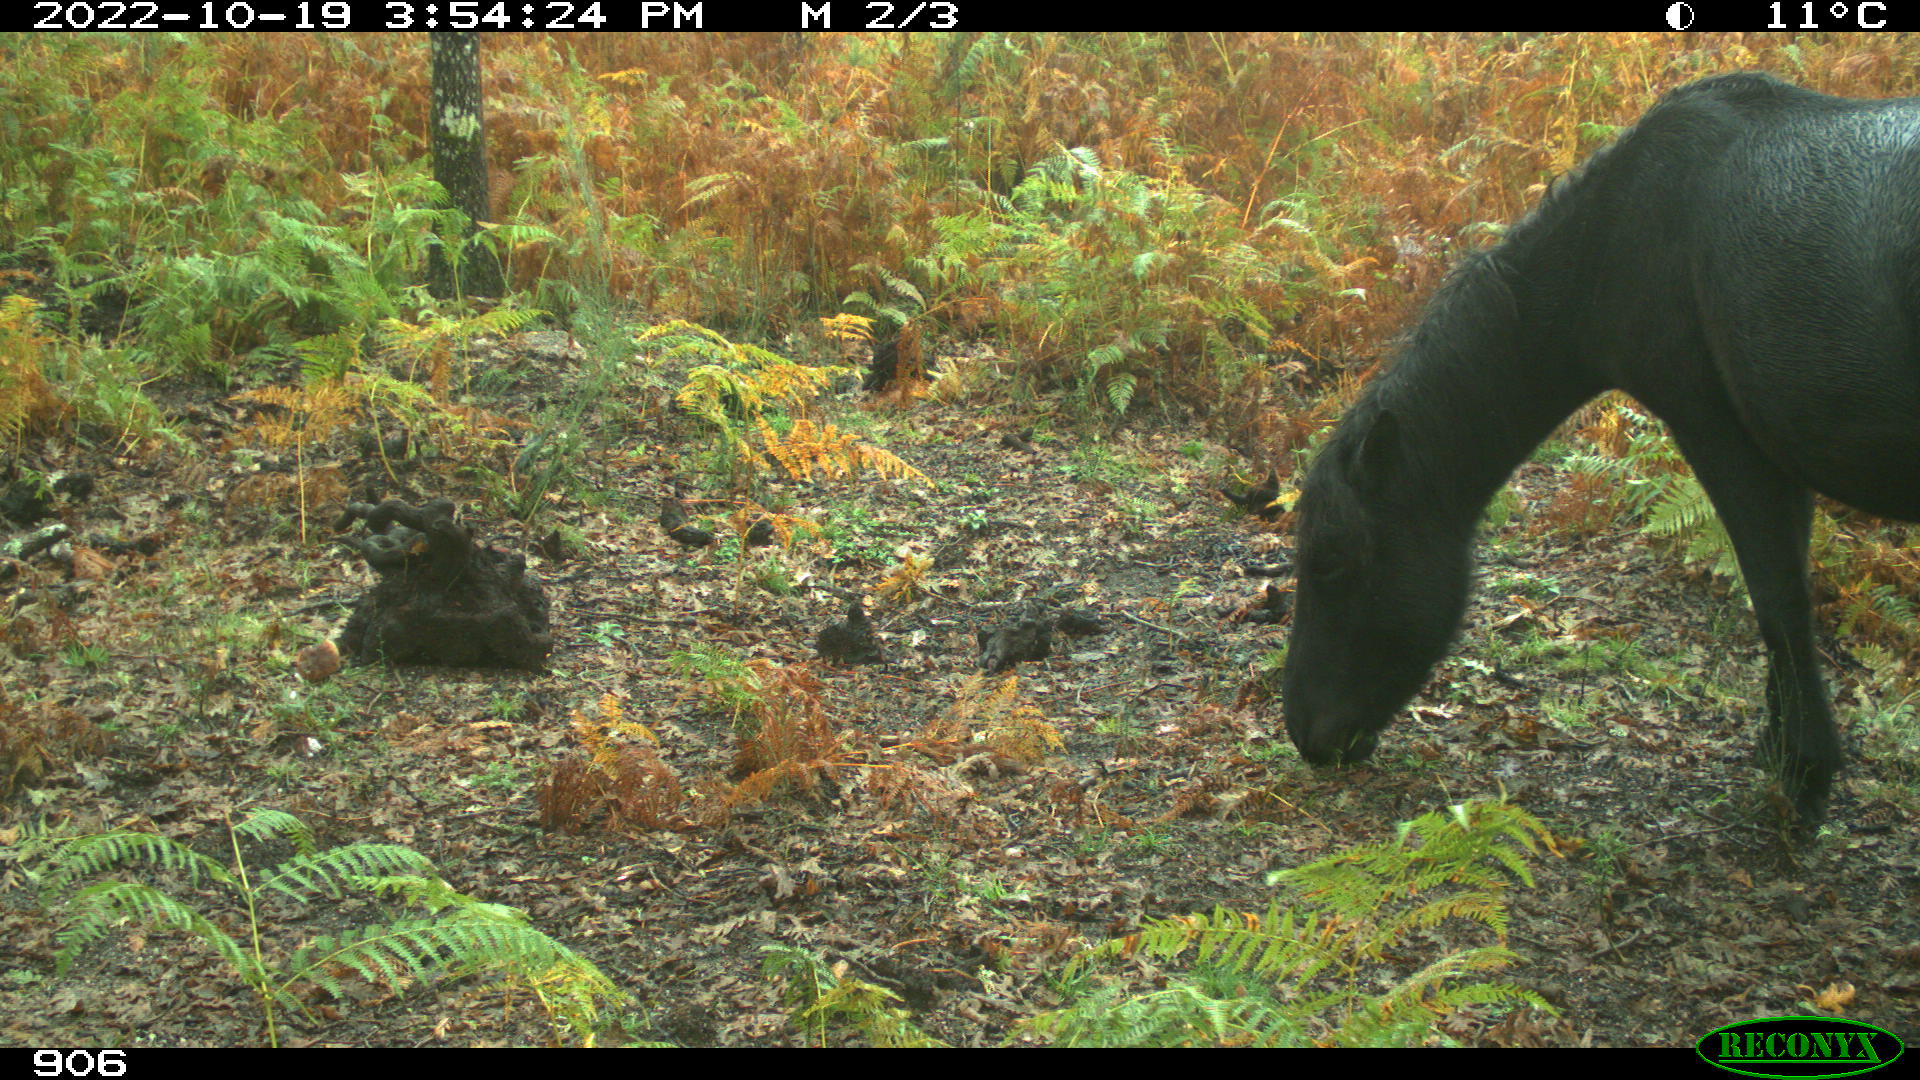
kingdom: Animalia
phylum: Chordata
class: Mammalia
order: Perissodactyla
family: Equidae
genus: Equus
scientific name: Equus caballus
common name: Horse
